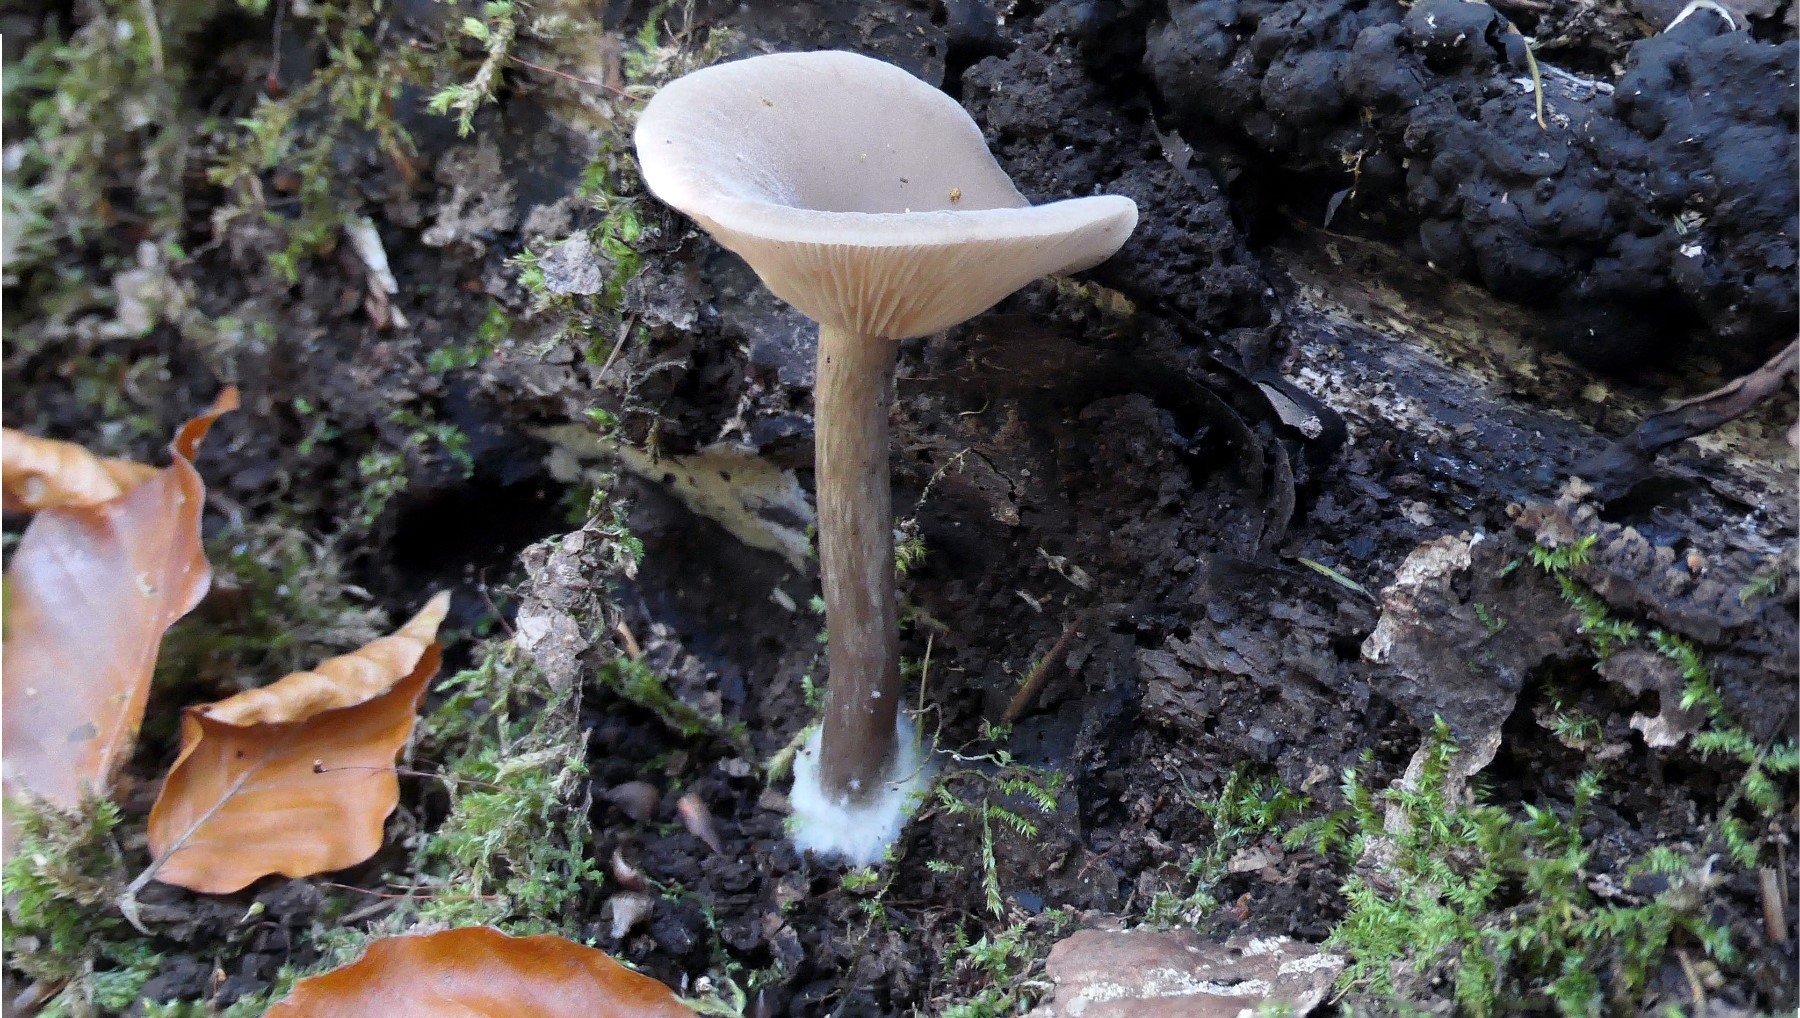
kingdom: Fungi
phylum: Basidiomycota
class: Agaricomycetes
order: Agaricales
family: Pseudoclitocybaceae
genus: Pseudoclitocybe
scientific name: Pseudoclitocybe cyathiformis
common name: almindelig bægertragthat
